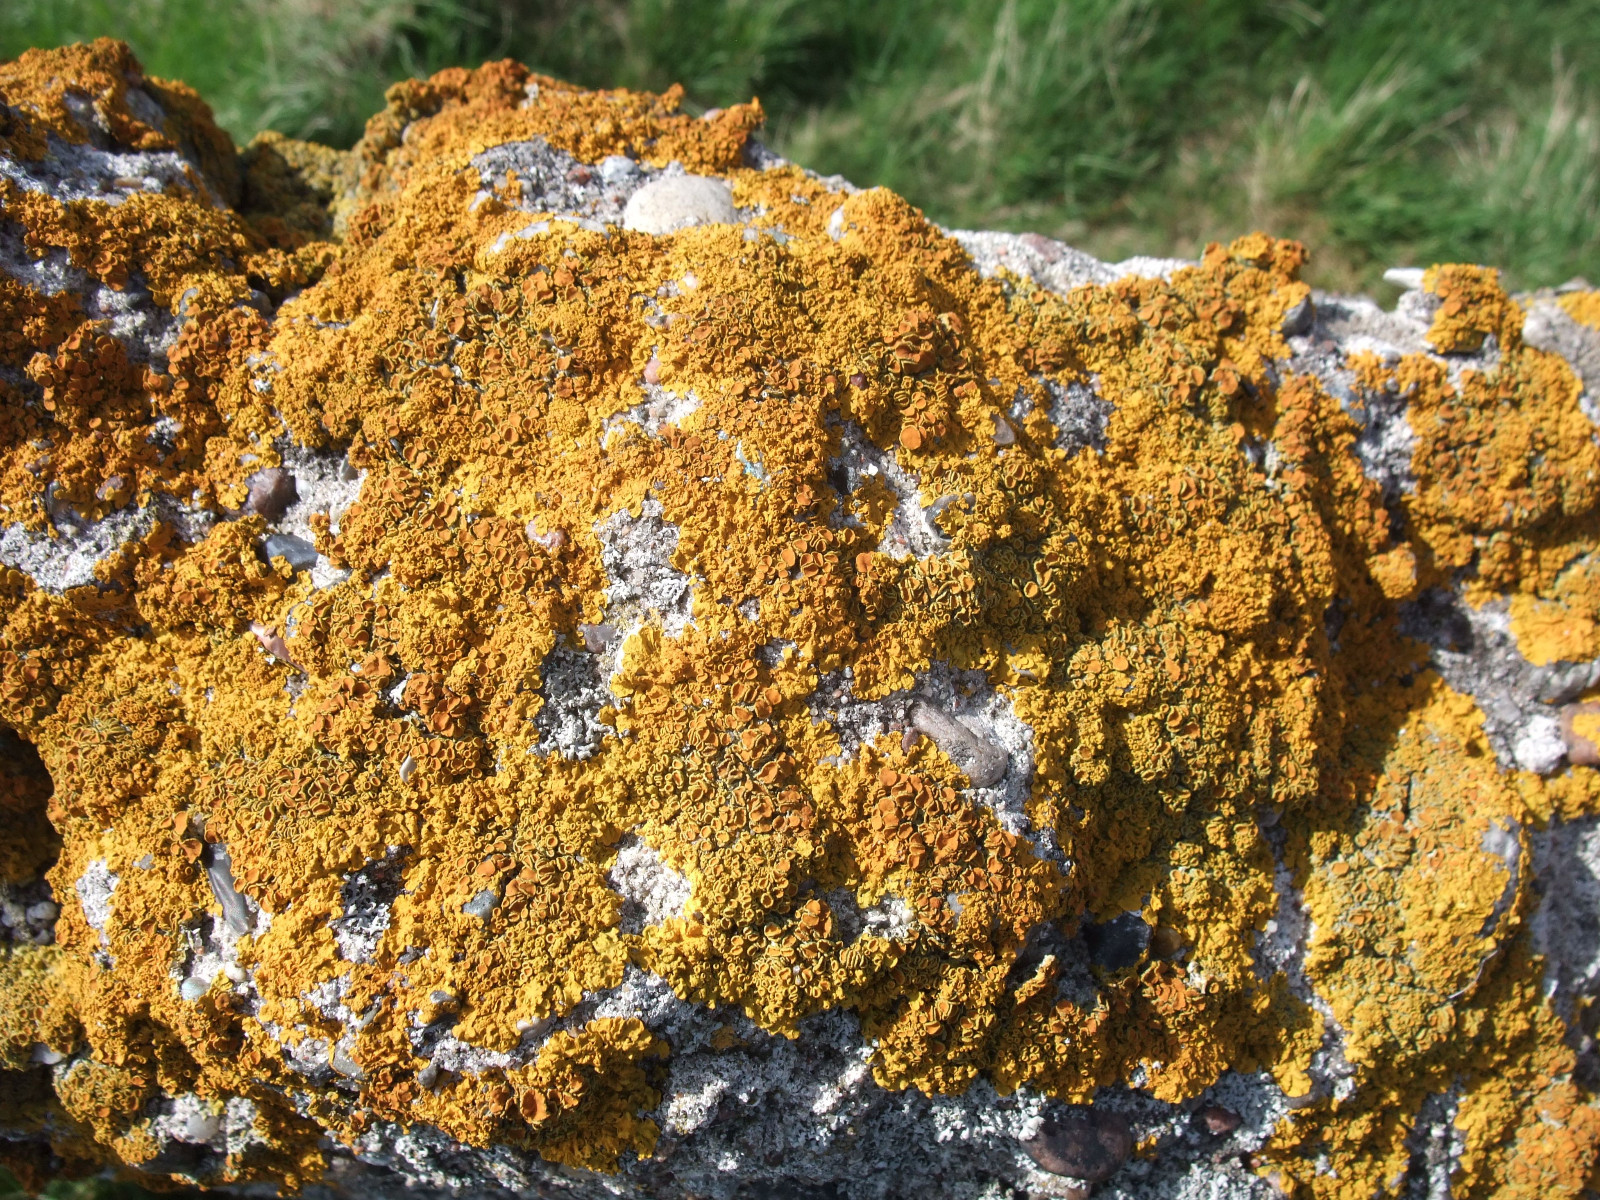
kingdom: Fungi
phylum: Ascomycota
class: Lecanoromycetes
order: Teloschistales
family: Teloschistaceae
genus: Xanthoria
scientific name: Xanthoria parietina
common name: almindelig væggelav
